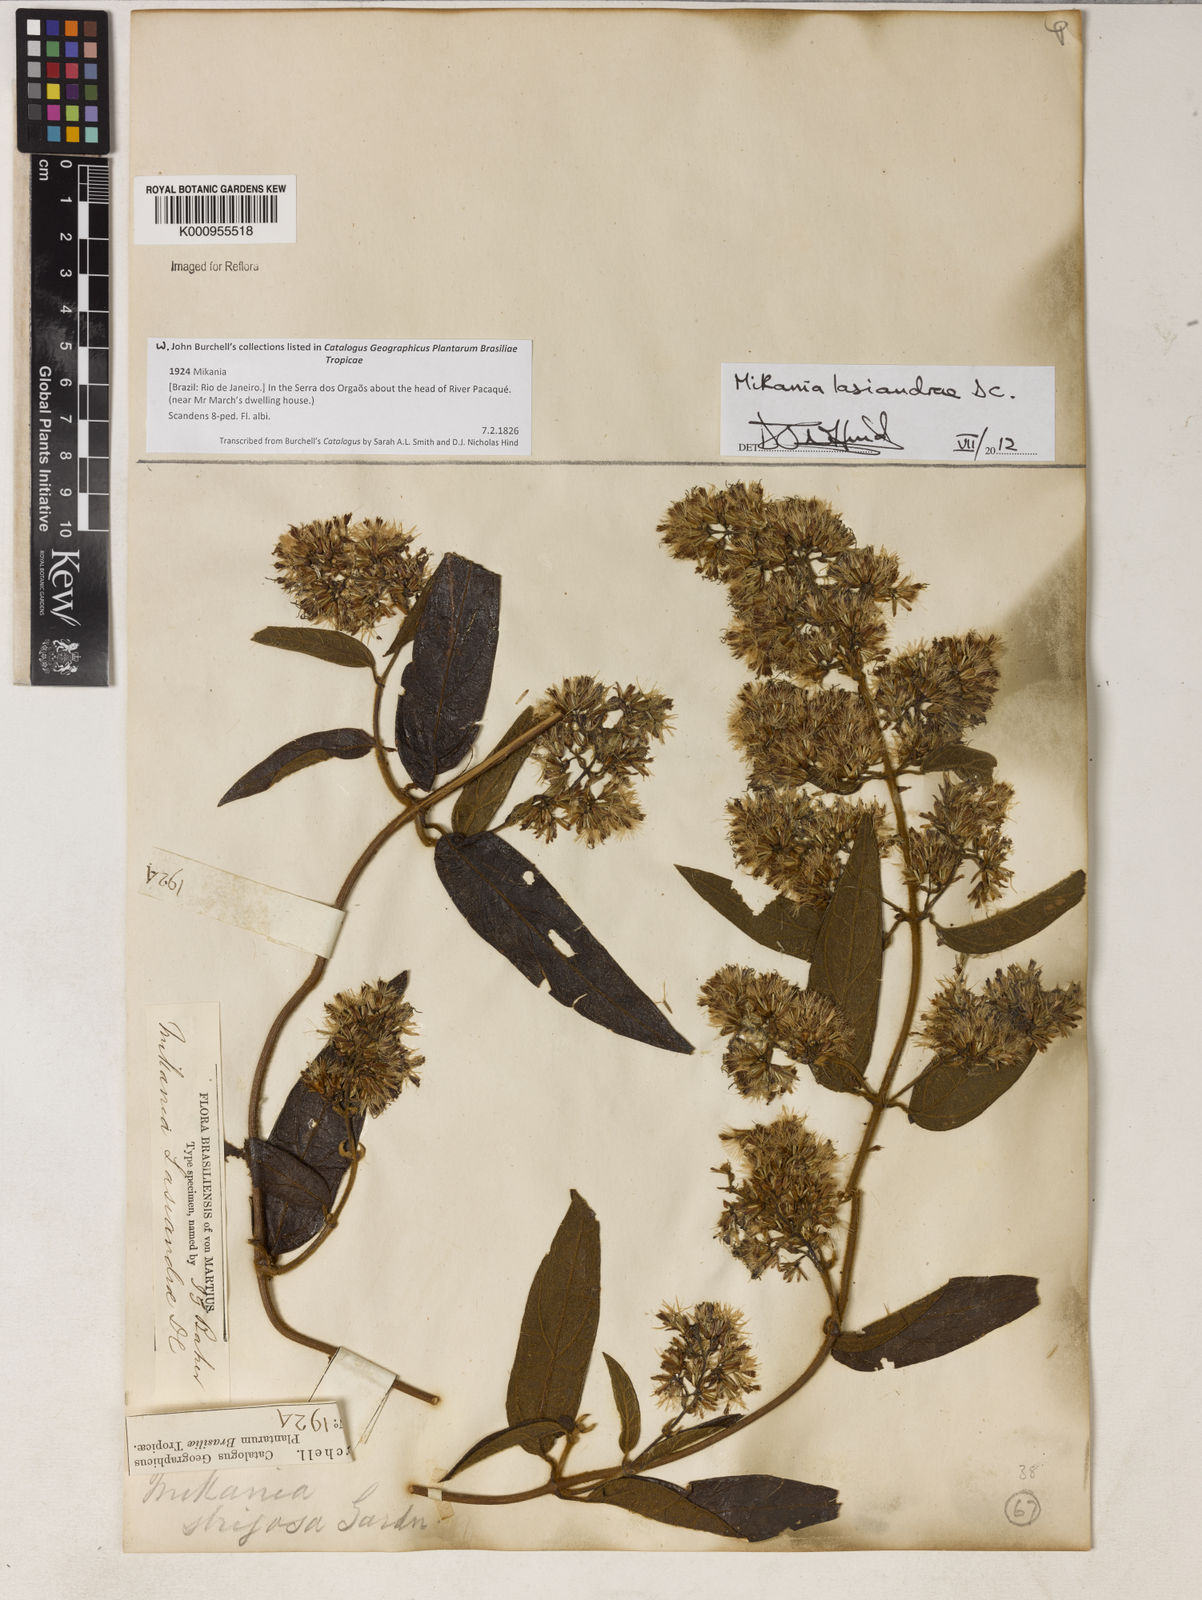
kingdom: Plantae
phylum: Tracheophyta
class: Magnoliopsida
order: Asterales
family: Asteraceae
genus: Mikania
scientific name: Mikania lasiandrae
